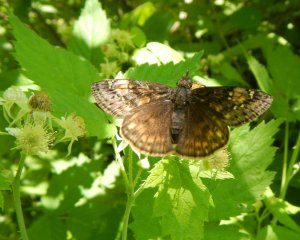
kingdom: Animalia
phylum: Arthropoda
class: Insecta
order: Lepidoptera
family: Hesperiidae
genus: Gesta
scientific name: Gesta
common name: Juvenal's Duskywing
